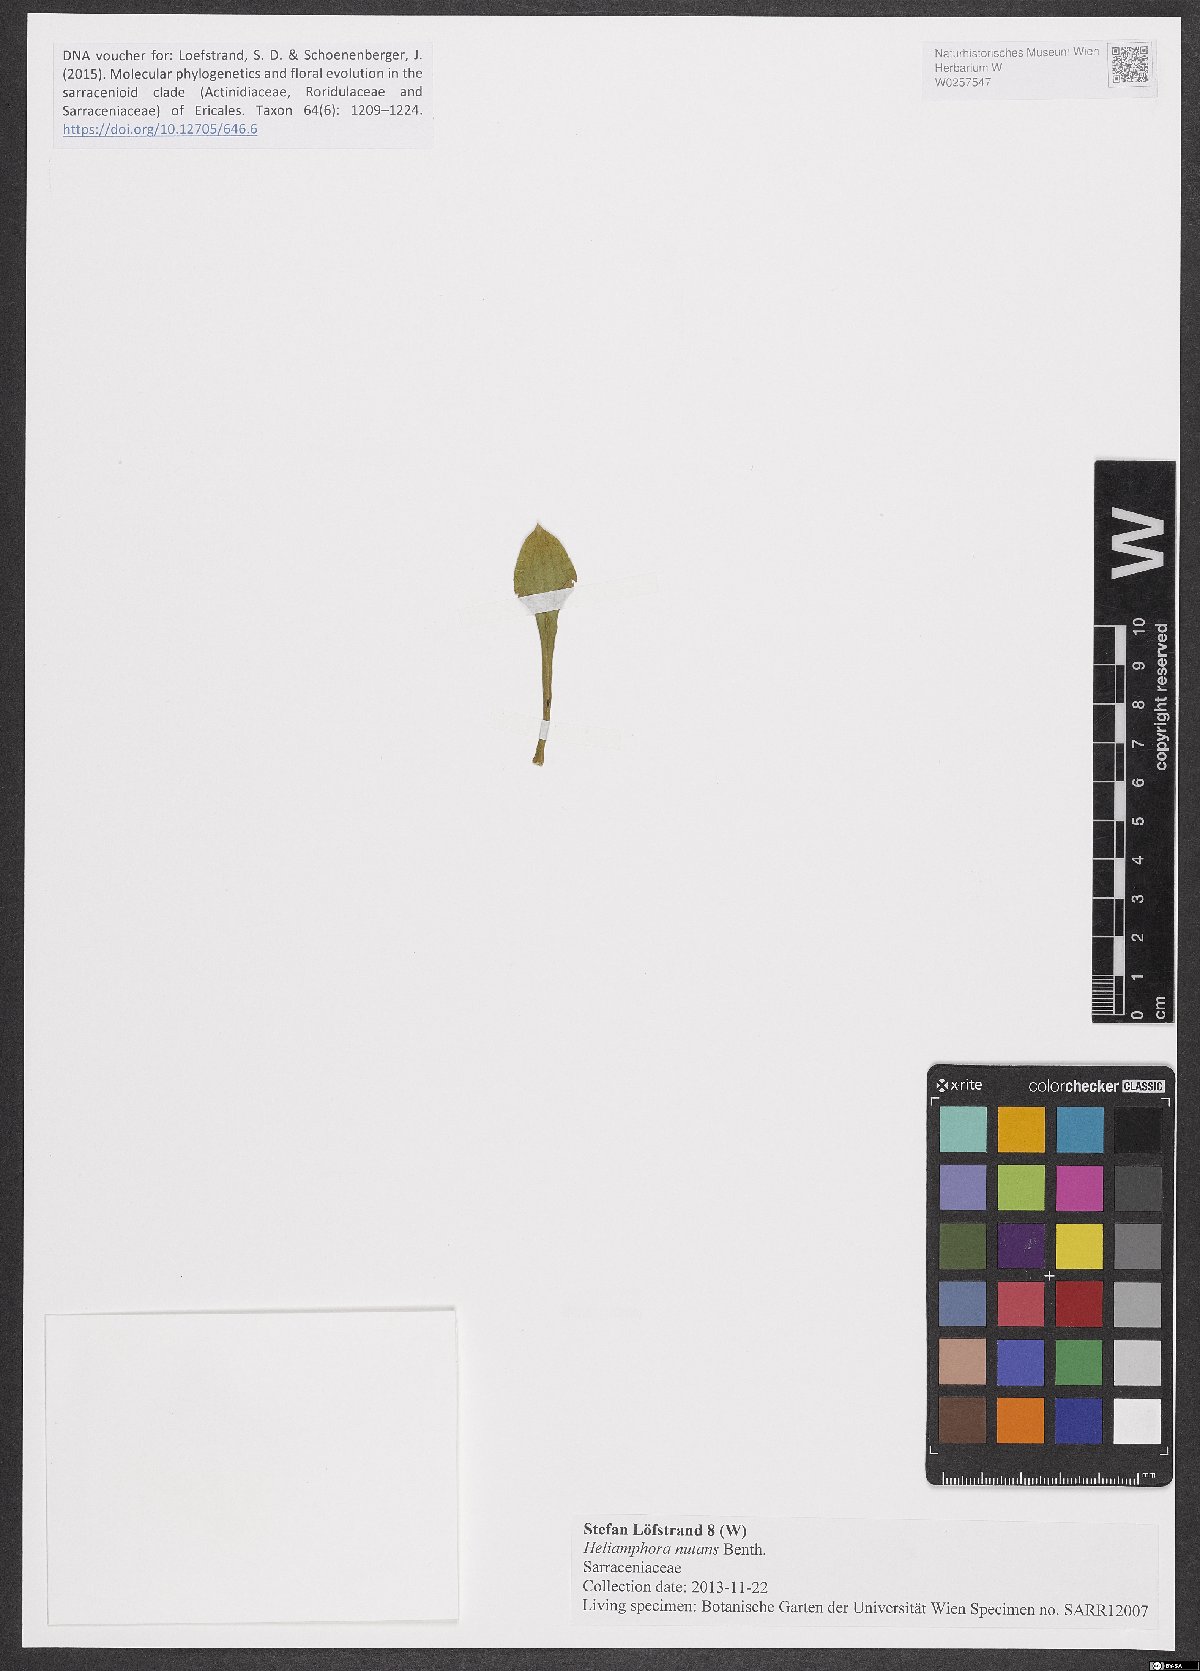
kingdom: Plantae
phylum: Tracheophyta
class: Magnoliopsida
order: Ericales
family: Sarraceniaceae
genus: Heliamphora
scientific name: Heliamphora nutans
